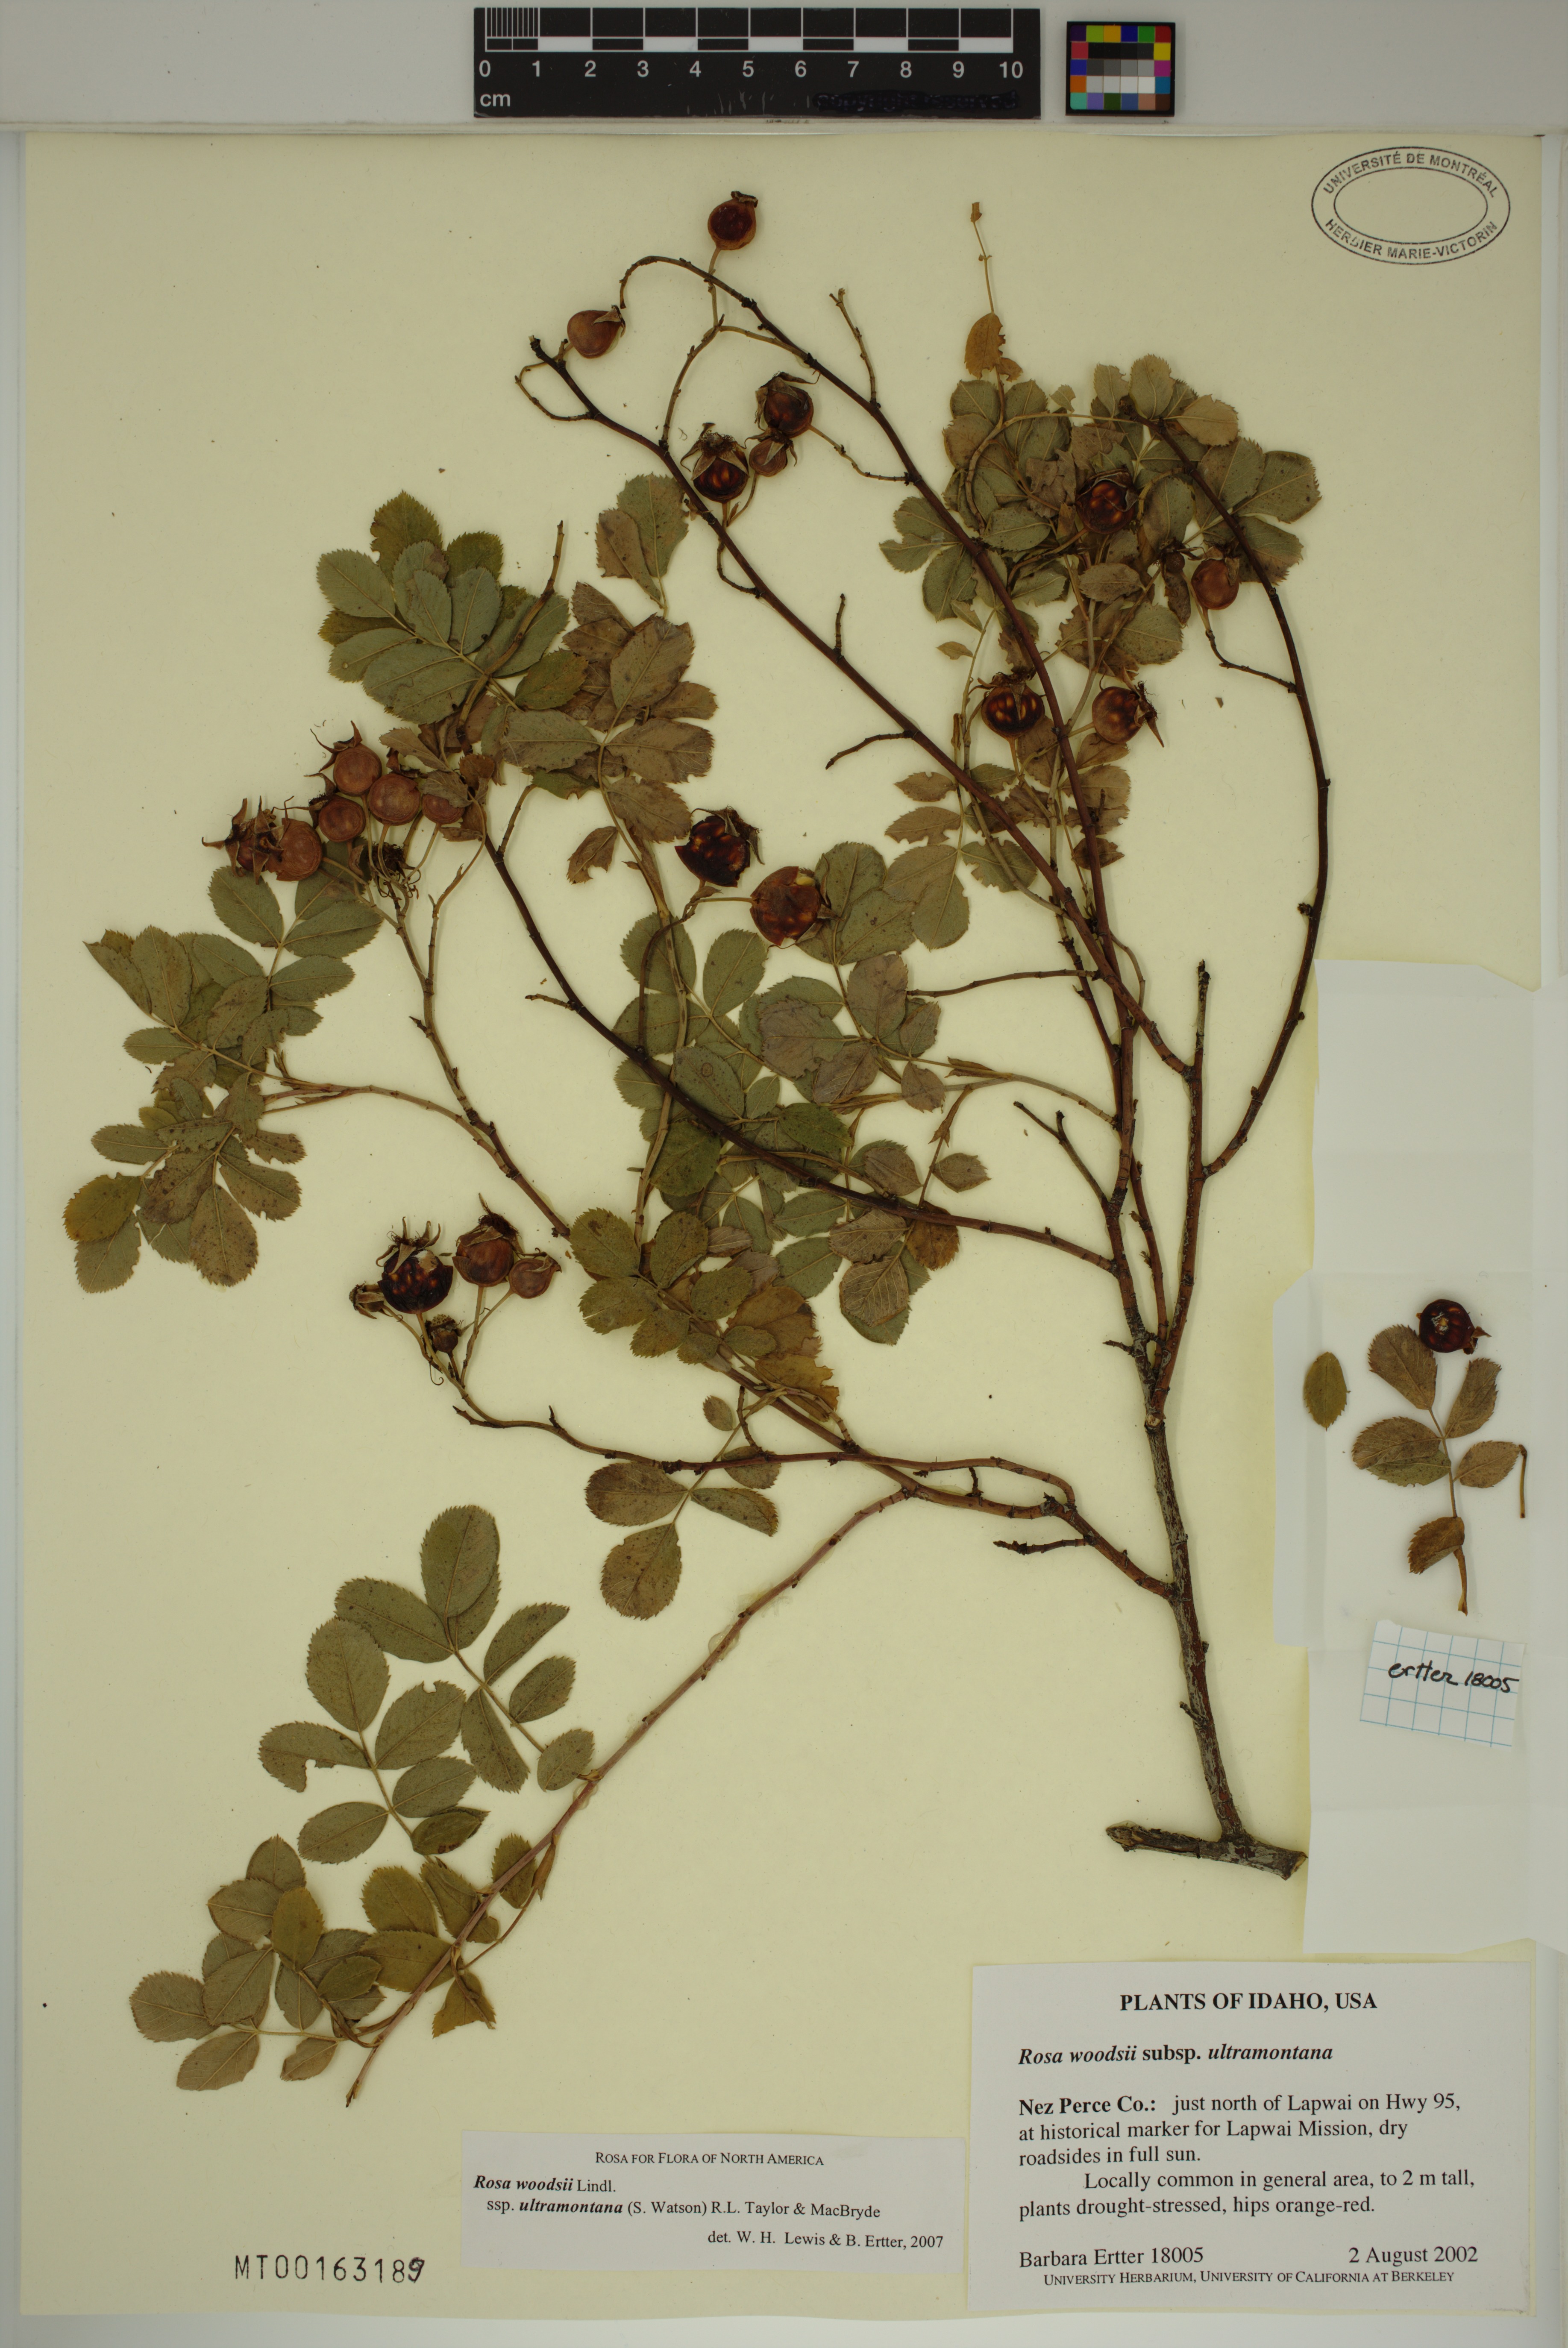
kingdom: Plantae
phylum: Tracheophyta
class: Magnoliopsida
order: Rosales
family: Rosaceae
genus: Rosa
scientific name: Rosa woodsii
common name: Woods's rose
